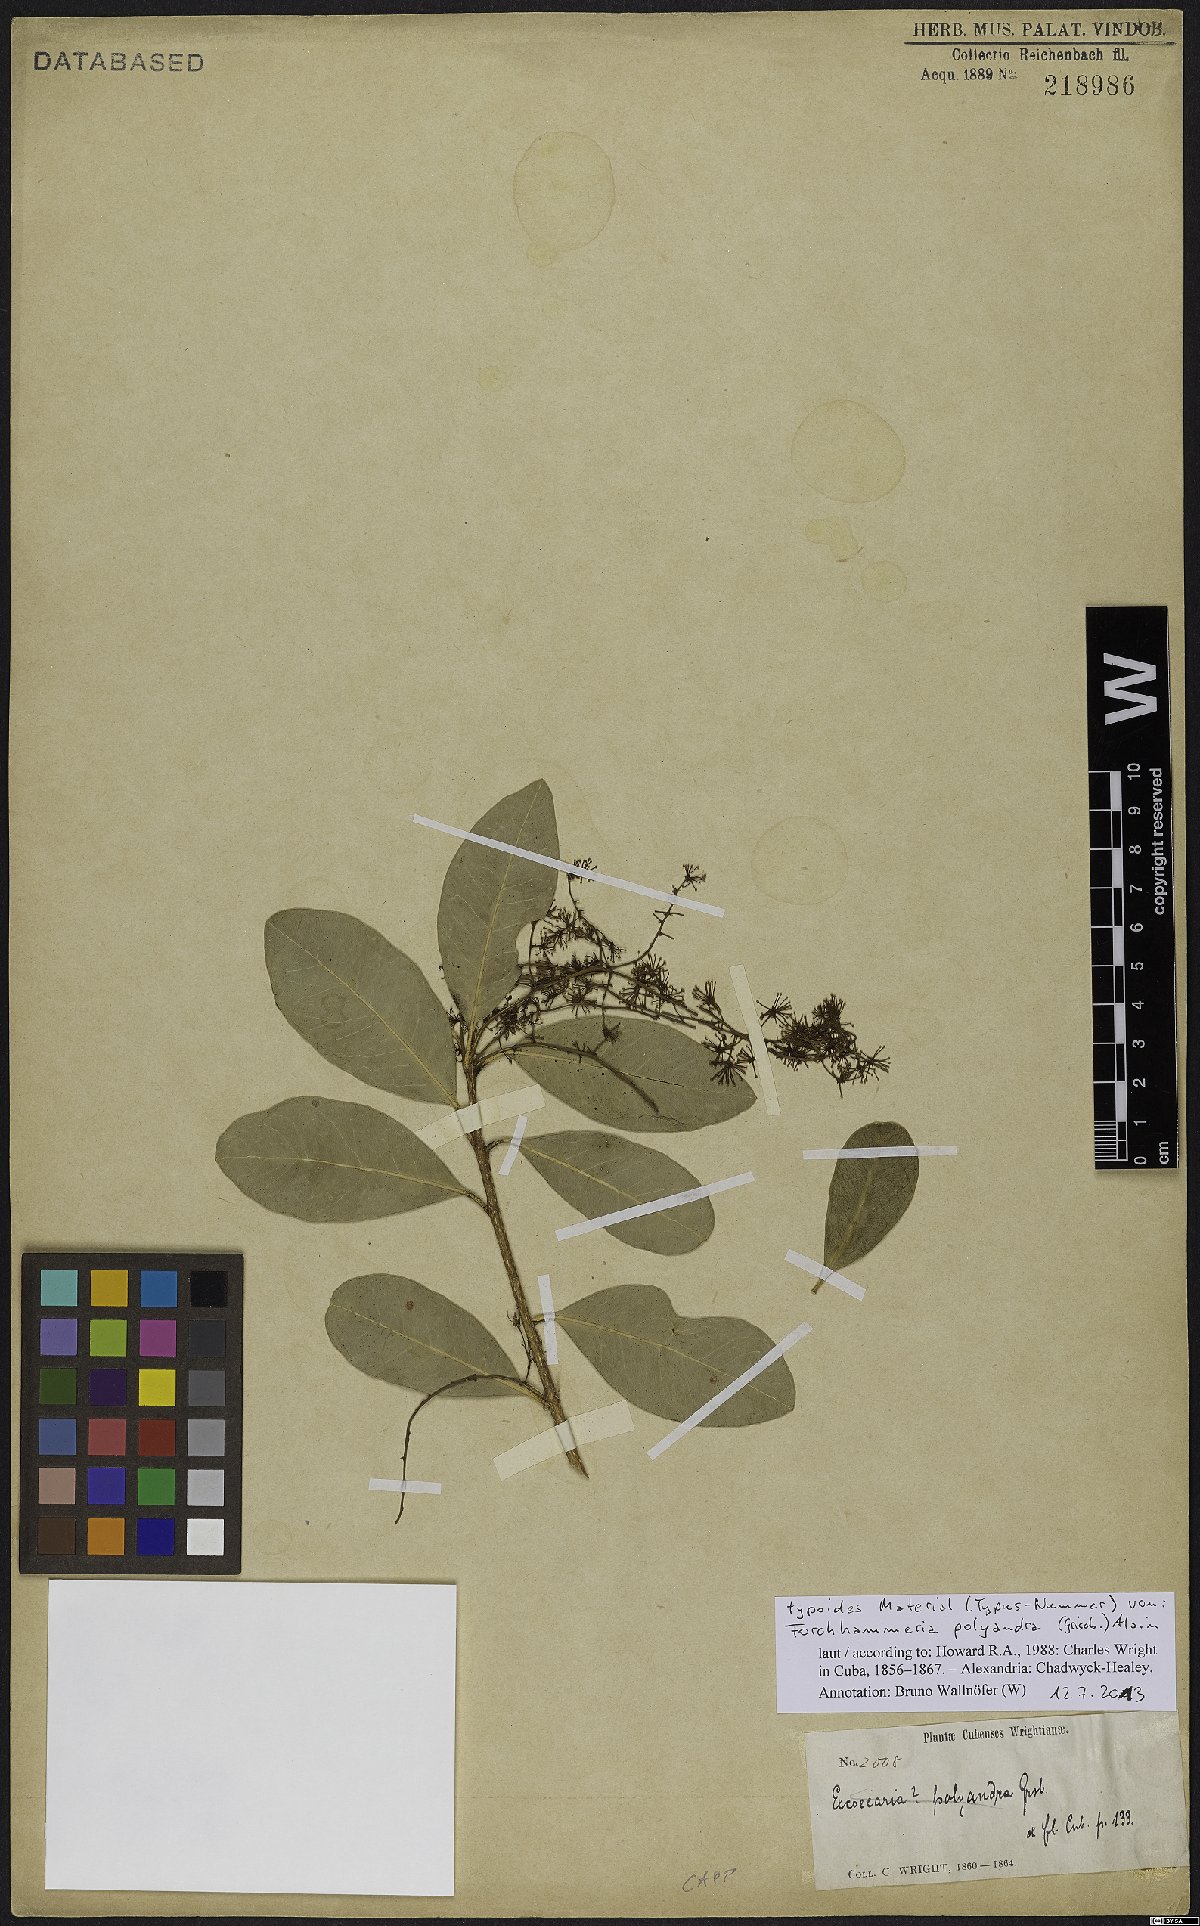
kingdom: Plantae
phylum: Tracheophyta
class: Magnoliopsida
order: Brassicales
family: Stixaceae
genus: Forchhammeria
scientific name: Forchhammeria polyandra
